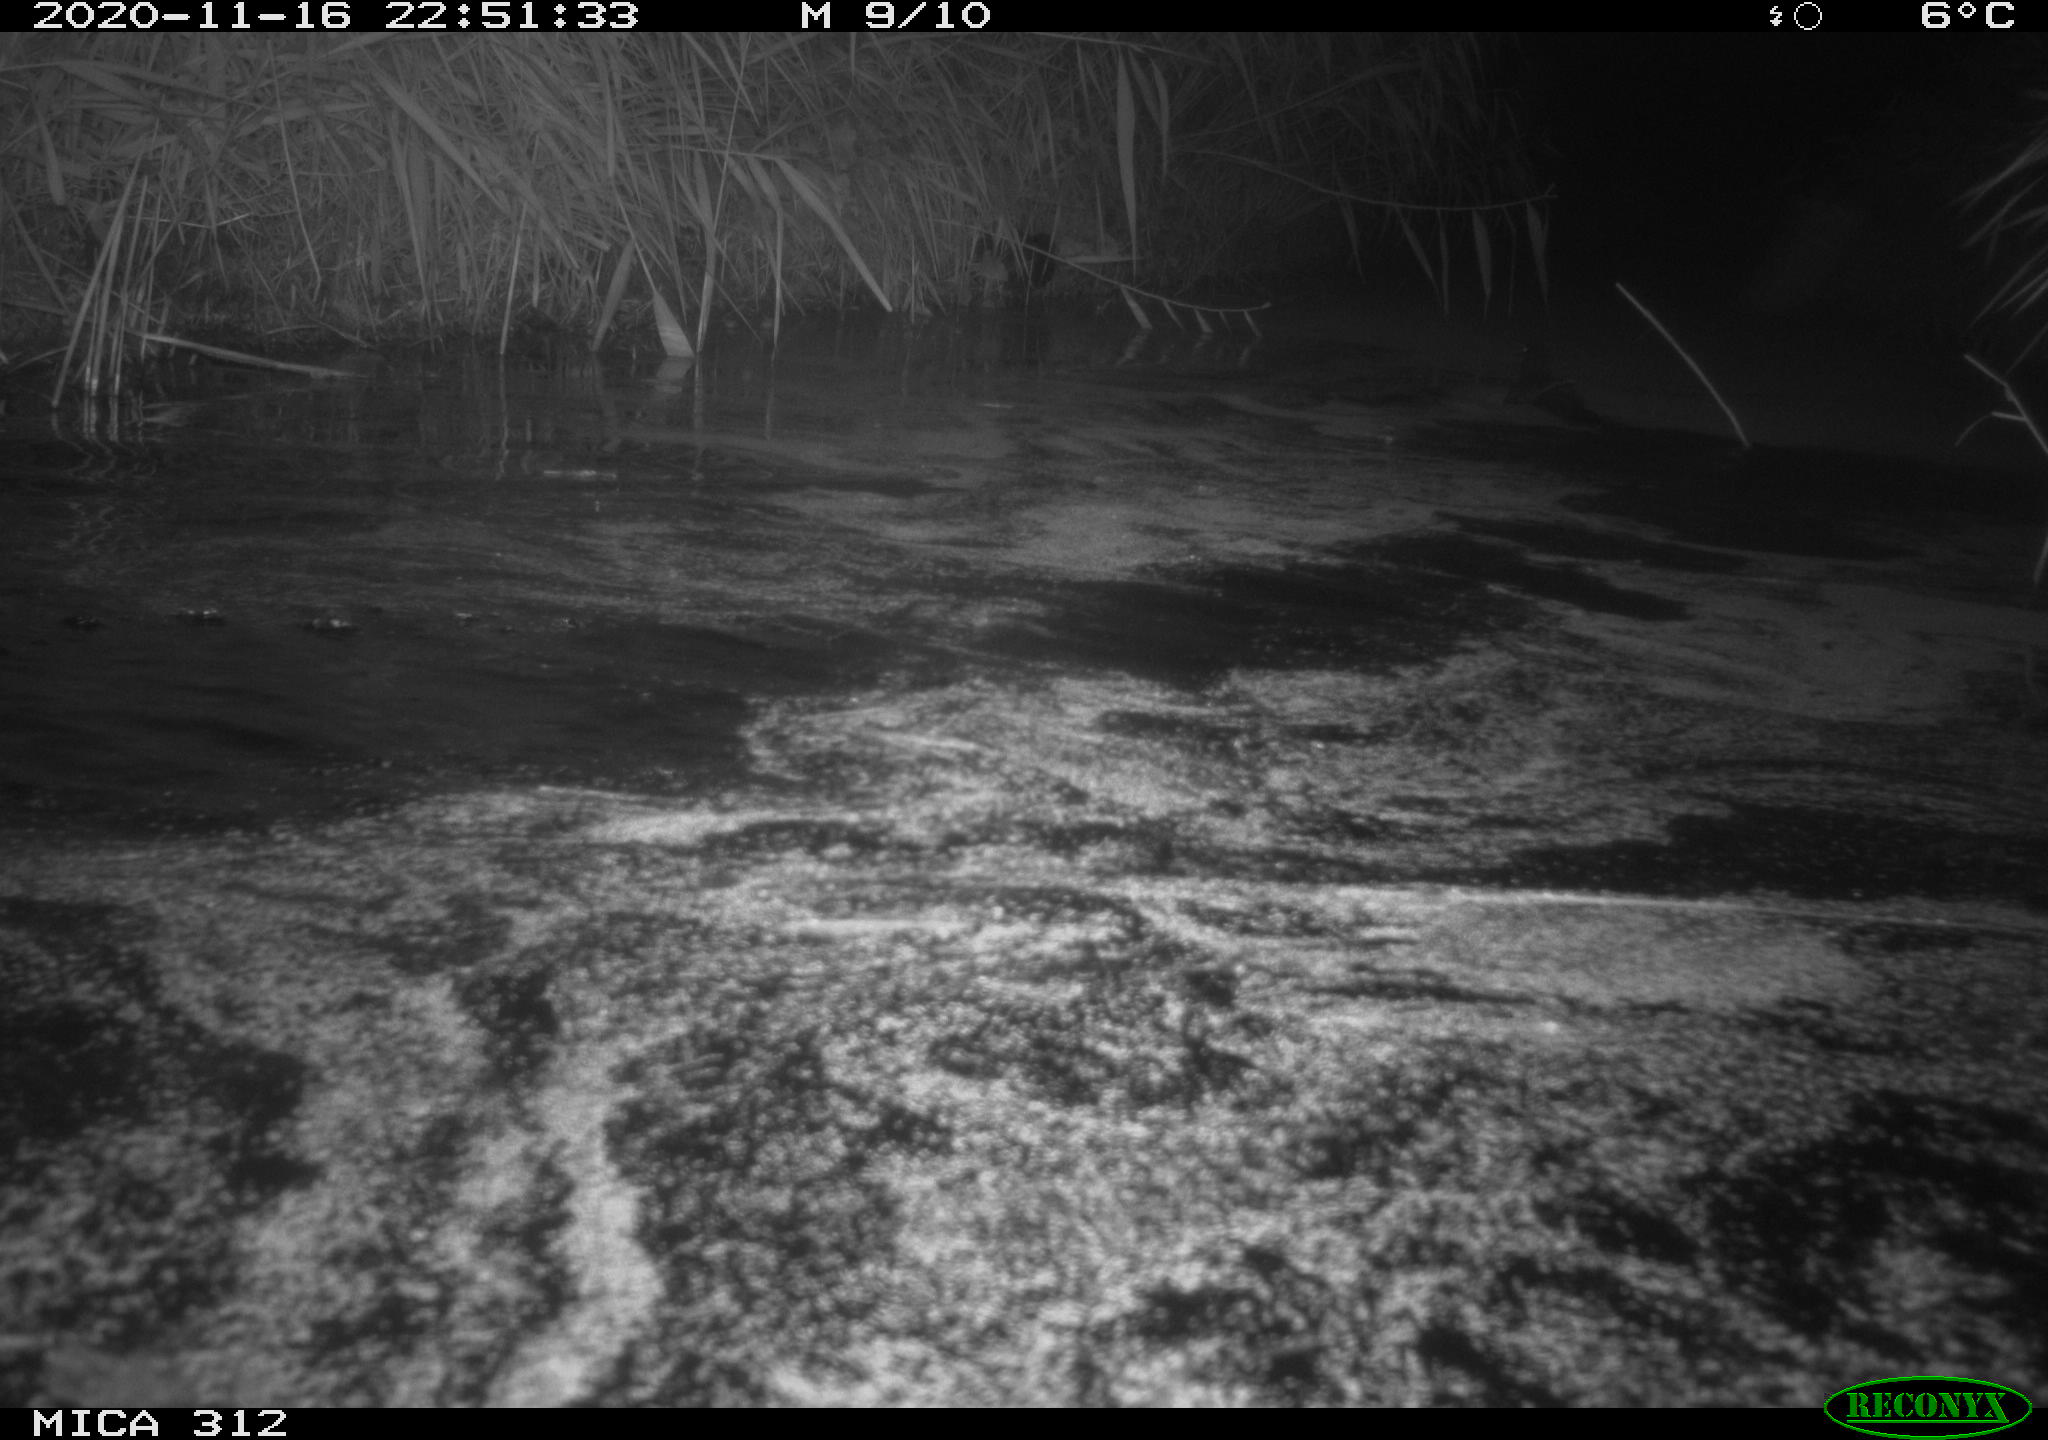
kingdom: Animalia
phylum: Chordata
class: Mammalia
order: Rodentia
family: Muridae
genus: Rattus
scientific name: Rattus norvegicus
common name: Brown rat
